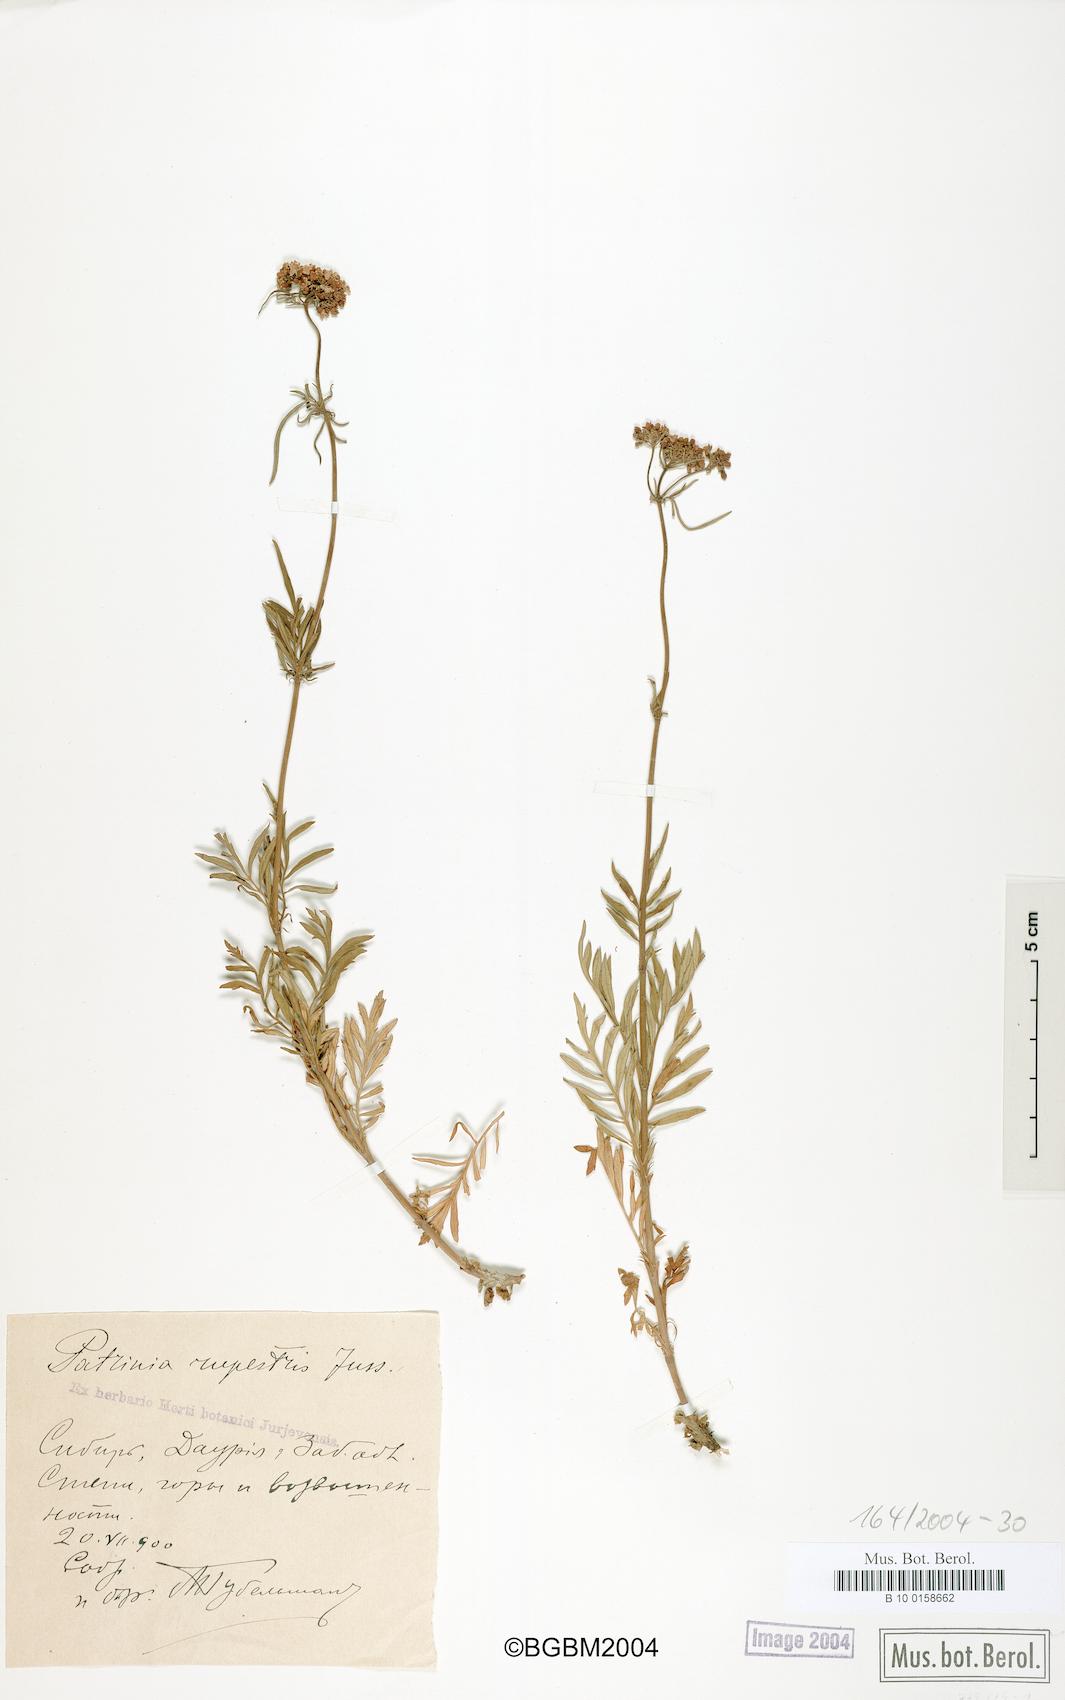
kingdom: Plantae
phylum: Tracheophyta
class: Magnoliopsida
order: Dipsacales
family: Caprifoliaceae
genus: Patrinia
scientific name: Patrinia rupestris
